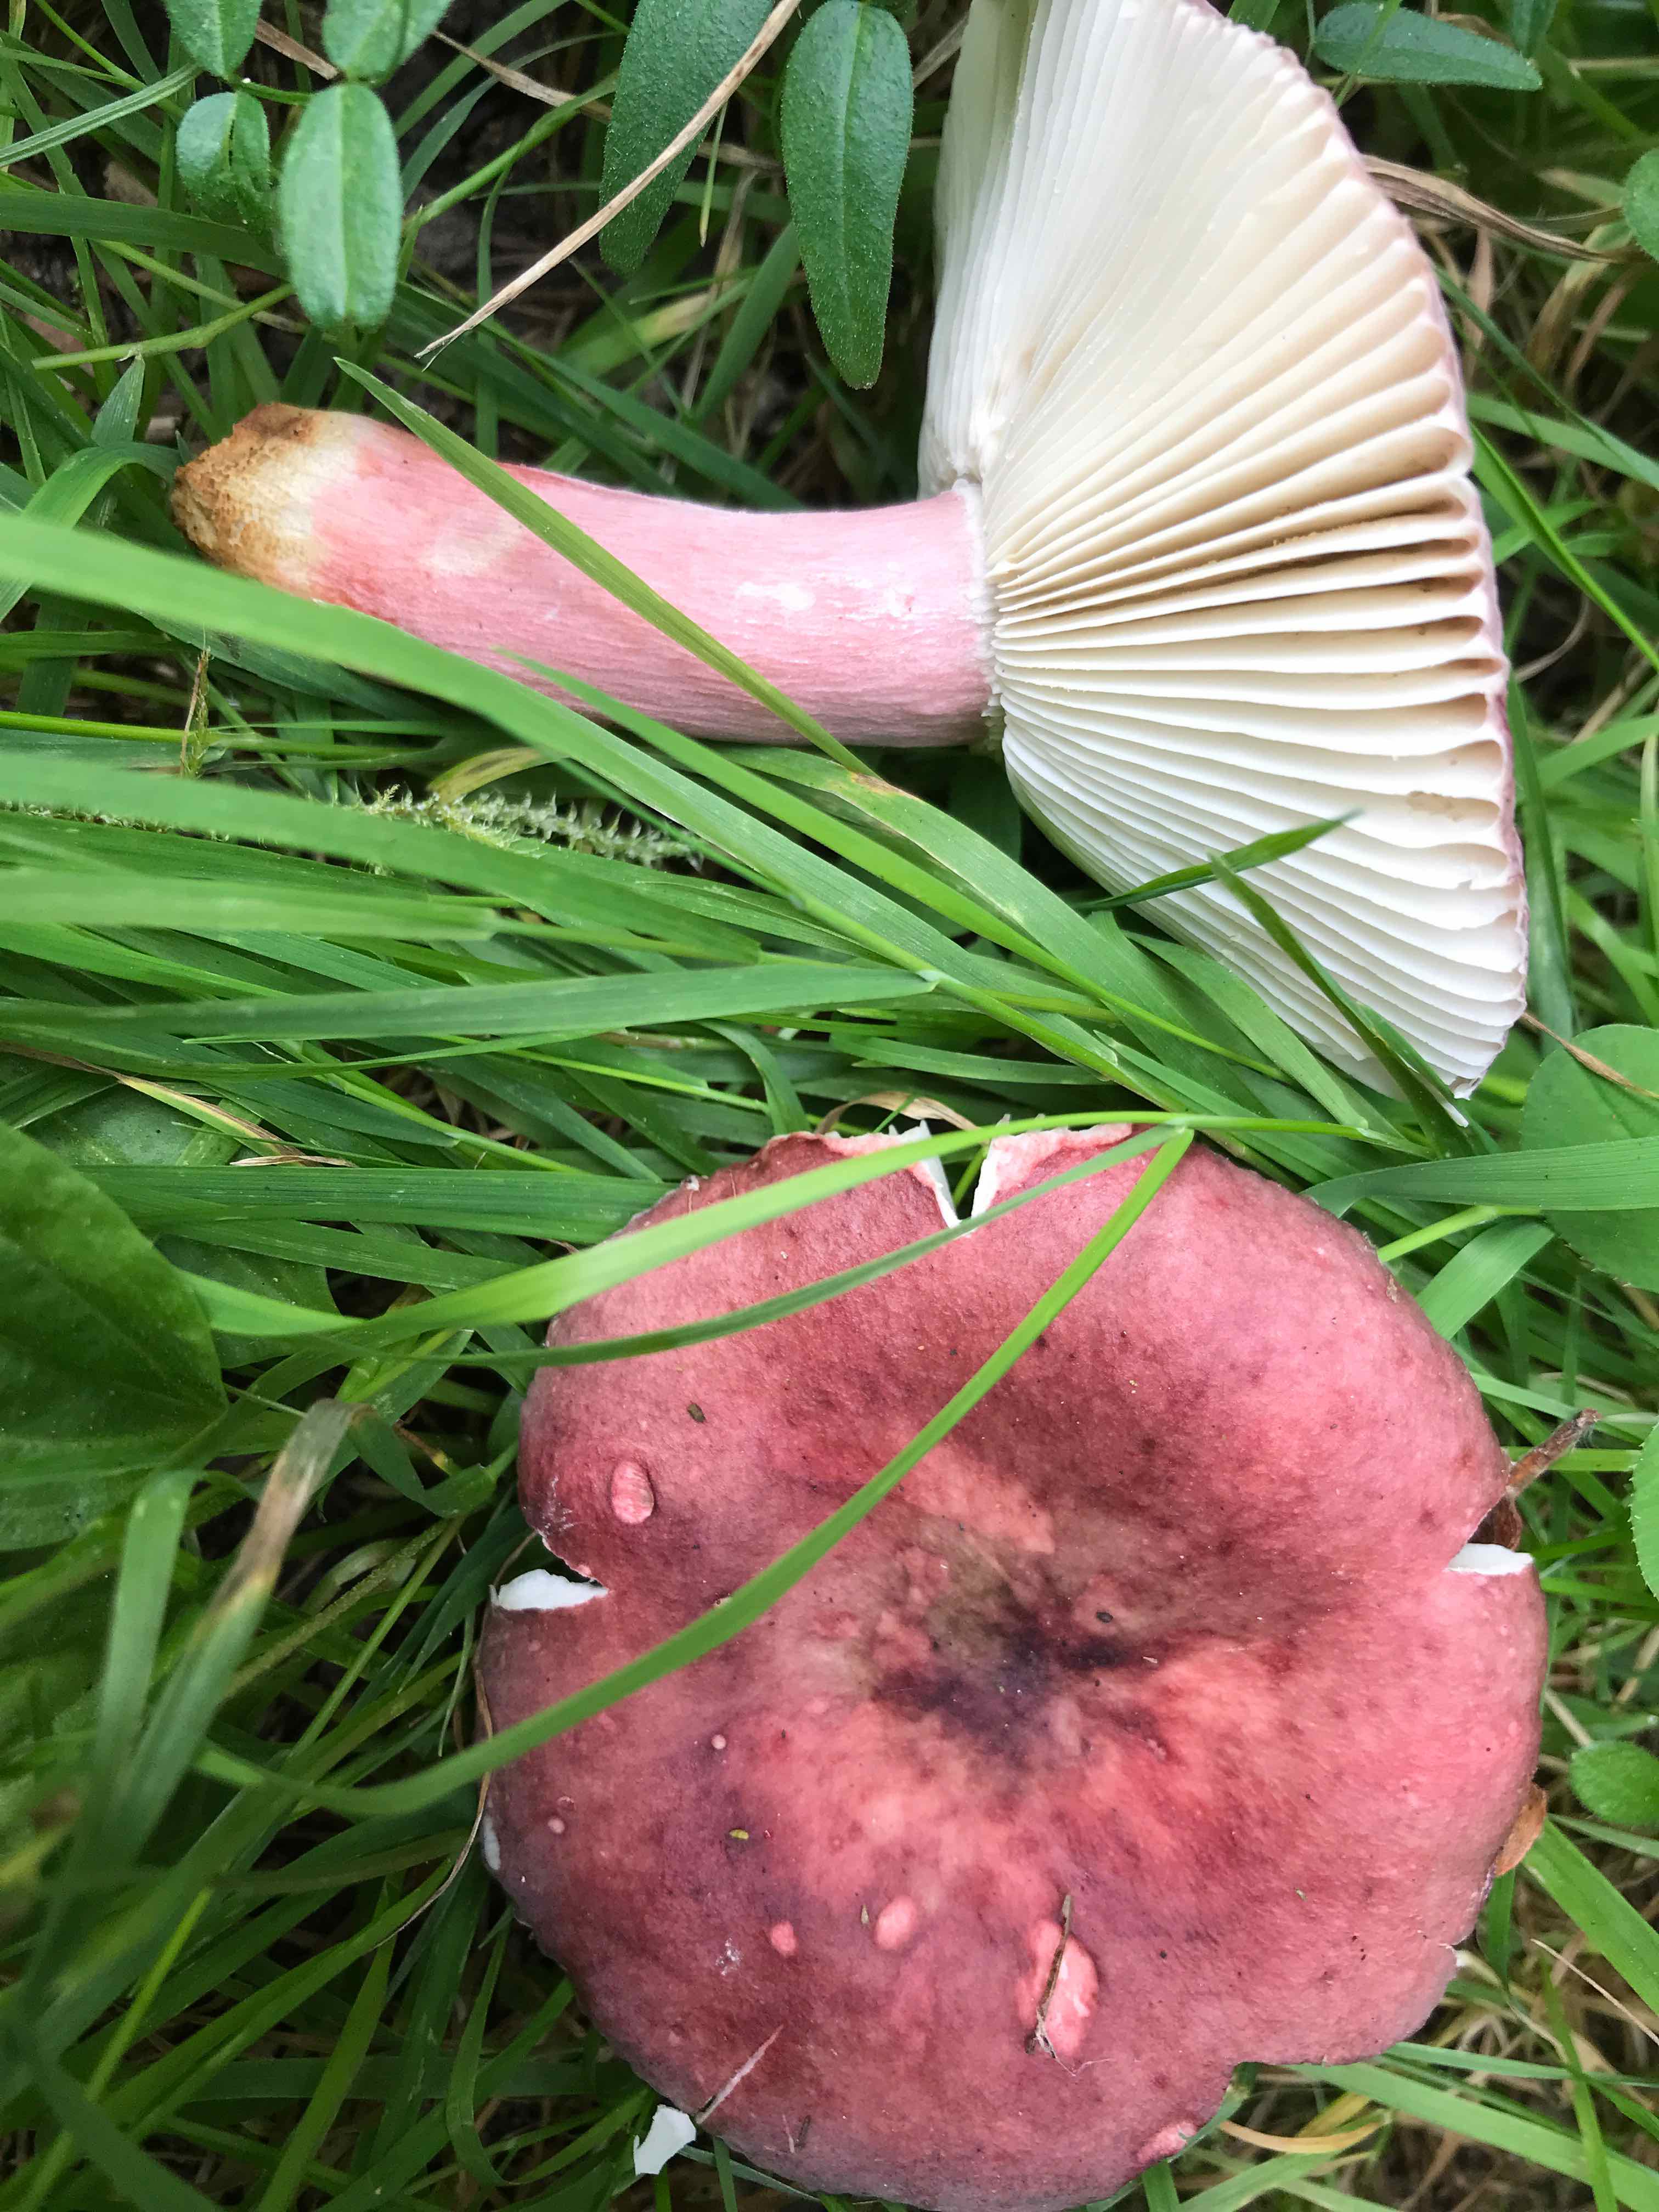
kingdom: Fungi
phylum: Basidiomycota
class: Agaricomycetes
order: Russulales
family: Russulaceae
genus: Russula
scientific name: Russula queletii
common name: Quélets skørhat
